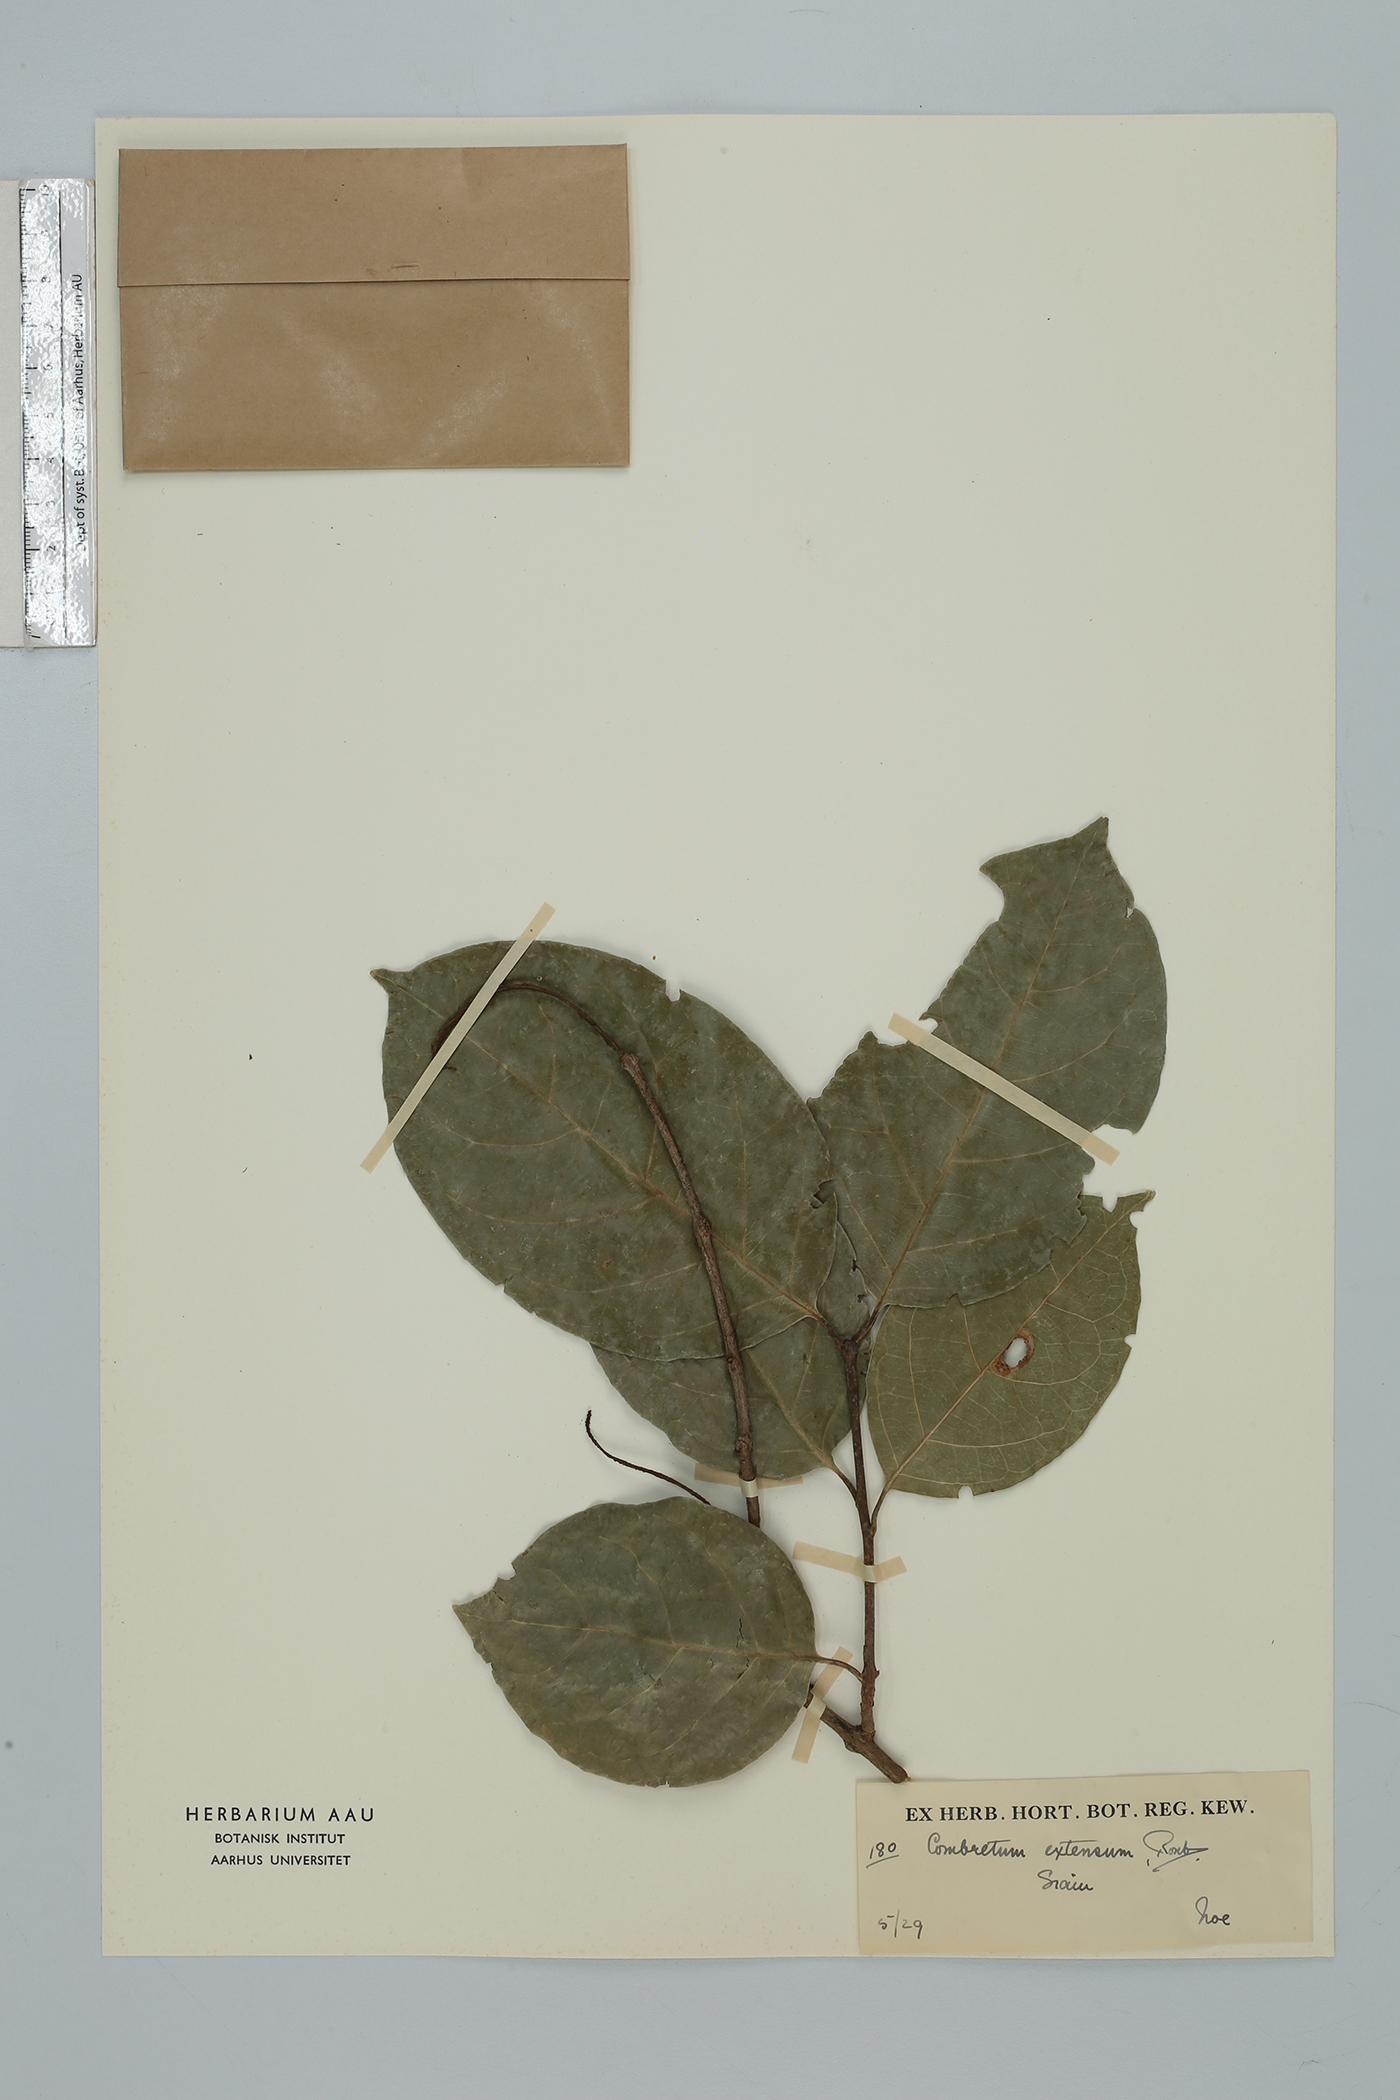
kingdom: Plantae
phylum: Tracheophyta
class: Magnoliopsida
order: Myrtales
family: Combretaceae
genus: Combretum
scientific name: Combretum latifolium
